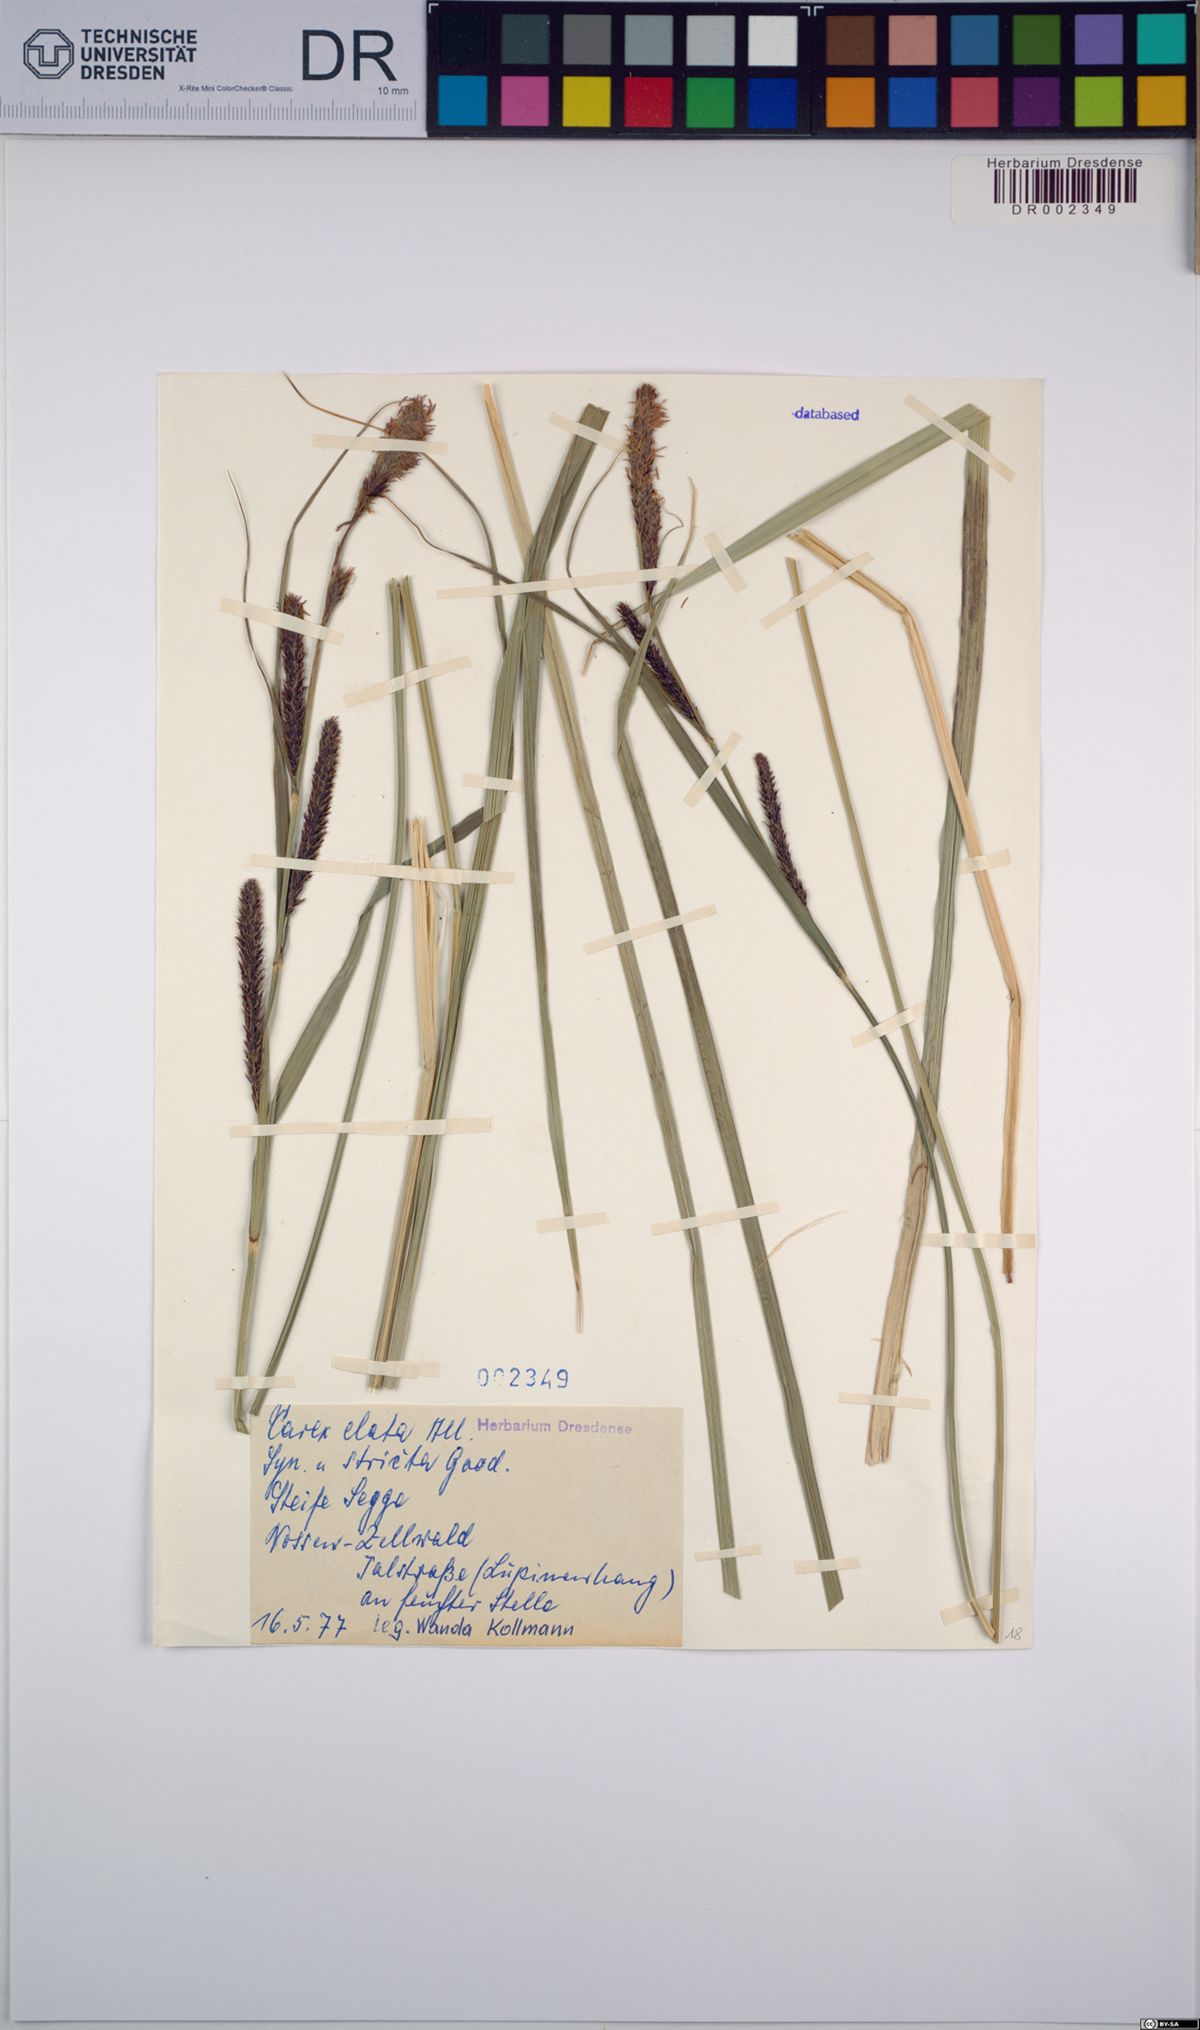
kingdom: Plantae
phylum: Tracheophyta
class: Liliopsida
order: Poales
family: Cyperaceae
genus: Carex
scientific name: Carex elata
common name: Tufted sedge
